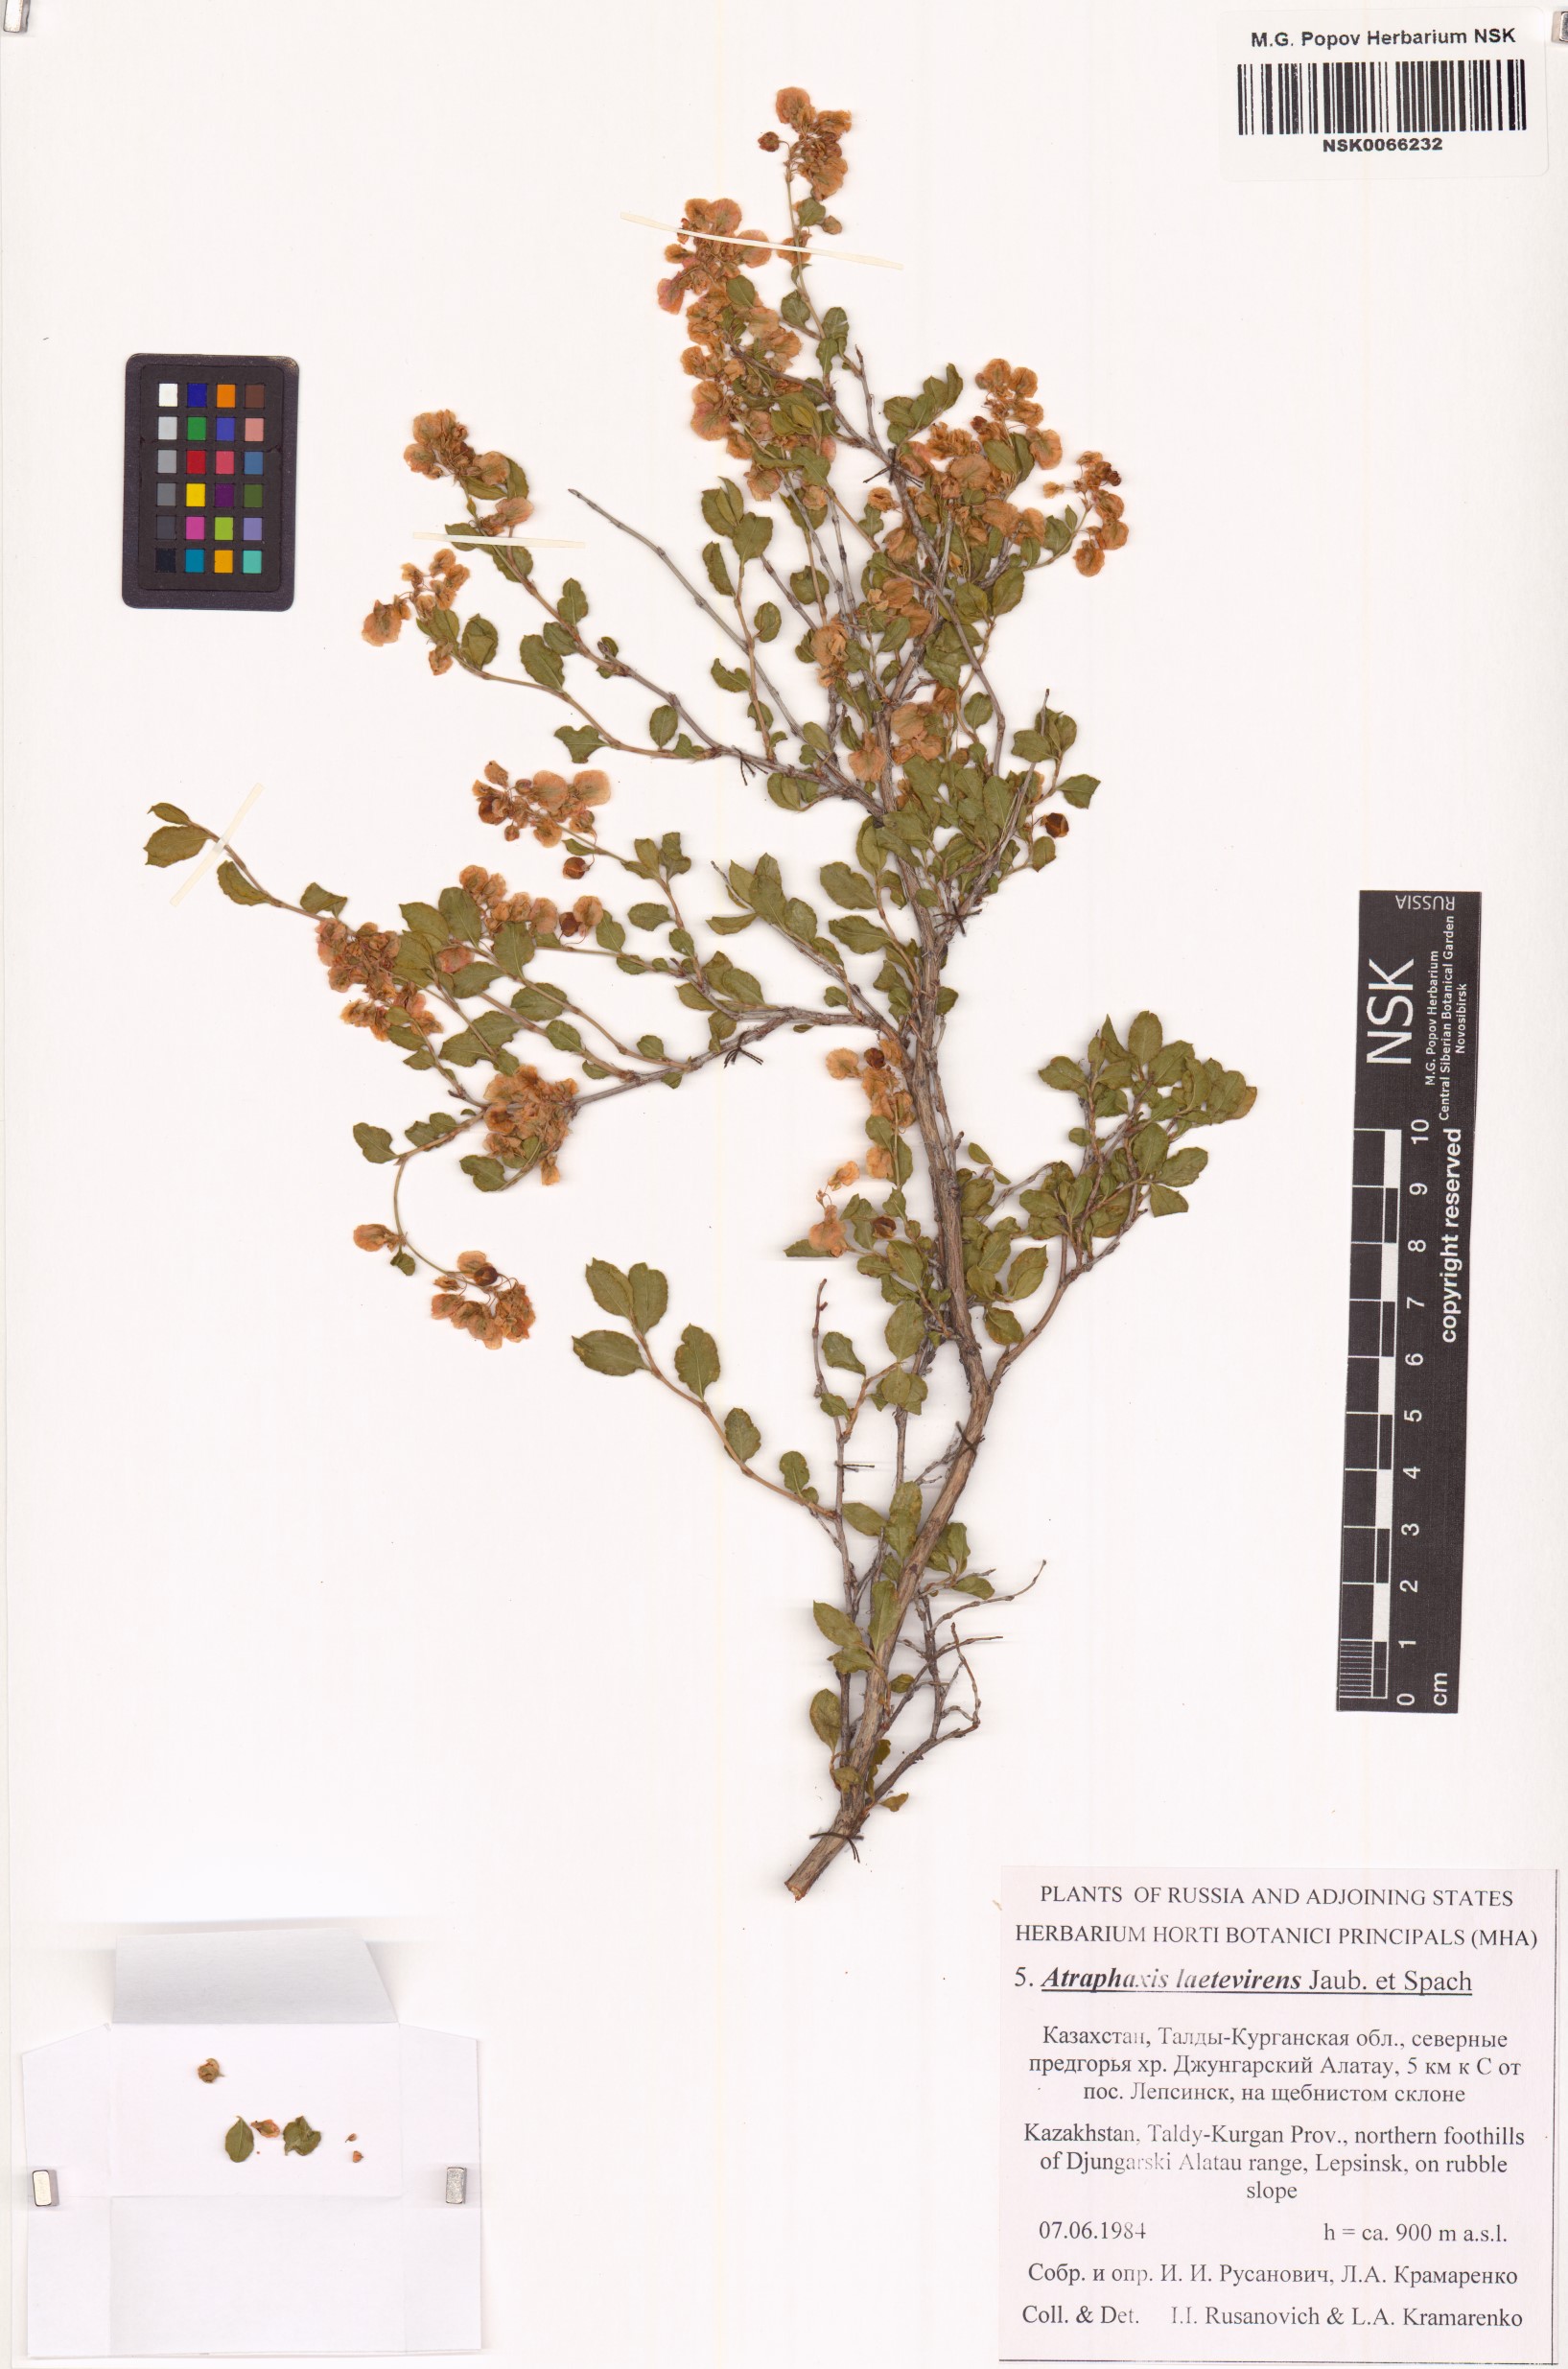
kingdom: Plantae
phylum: Tracheophyta
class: Magnoliopsida
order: Caryophyllales
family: Polygonaceae
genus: Atraphaxis
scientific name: Atraphaxis laetevirens
